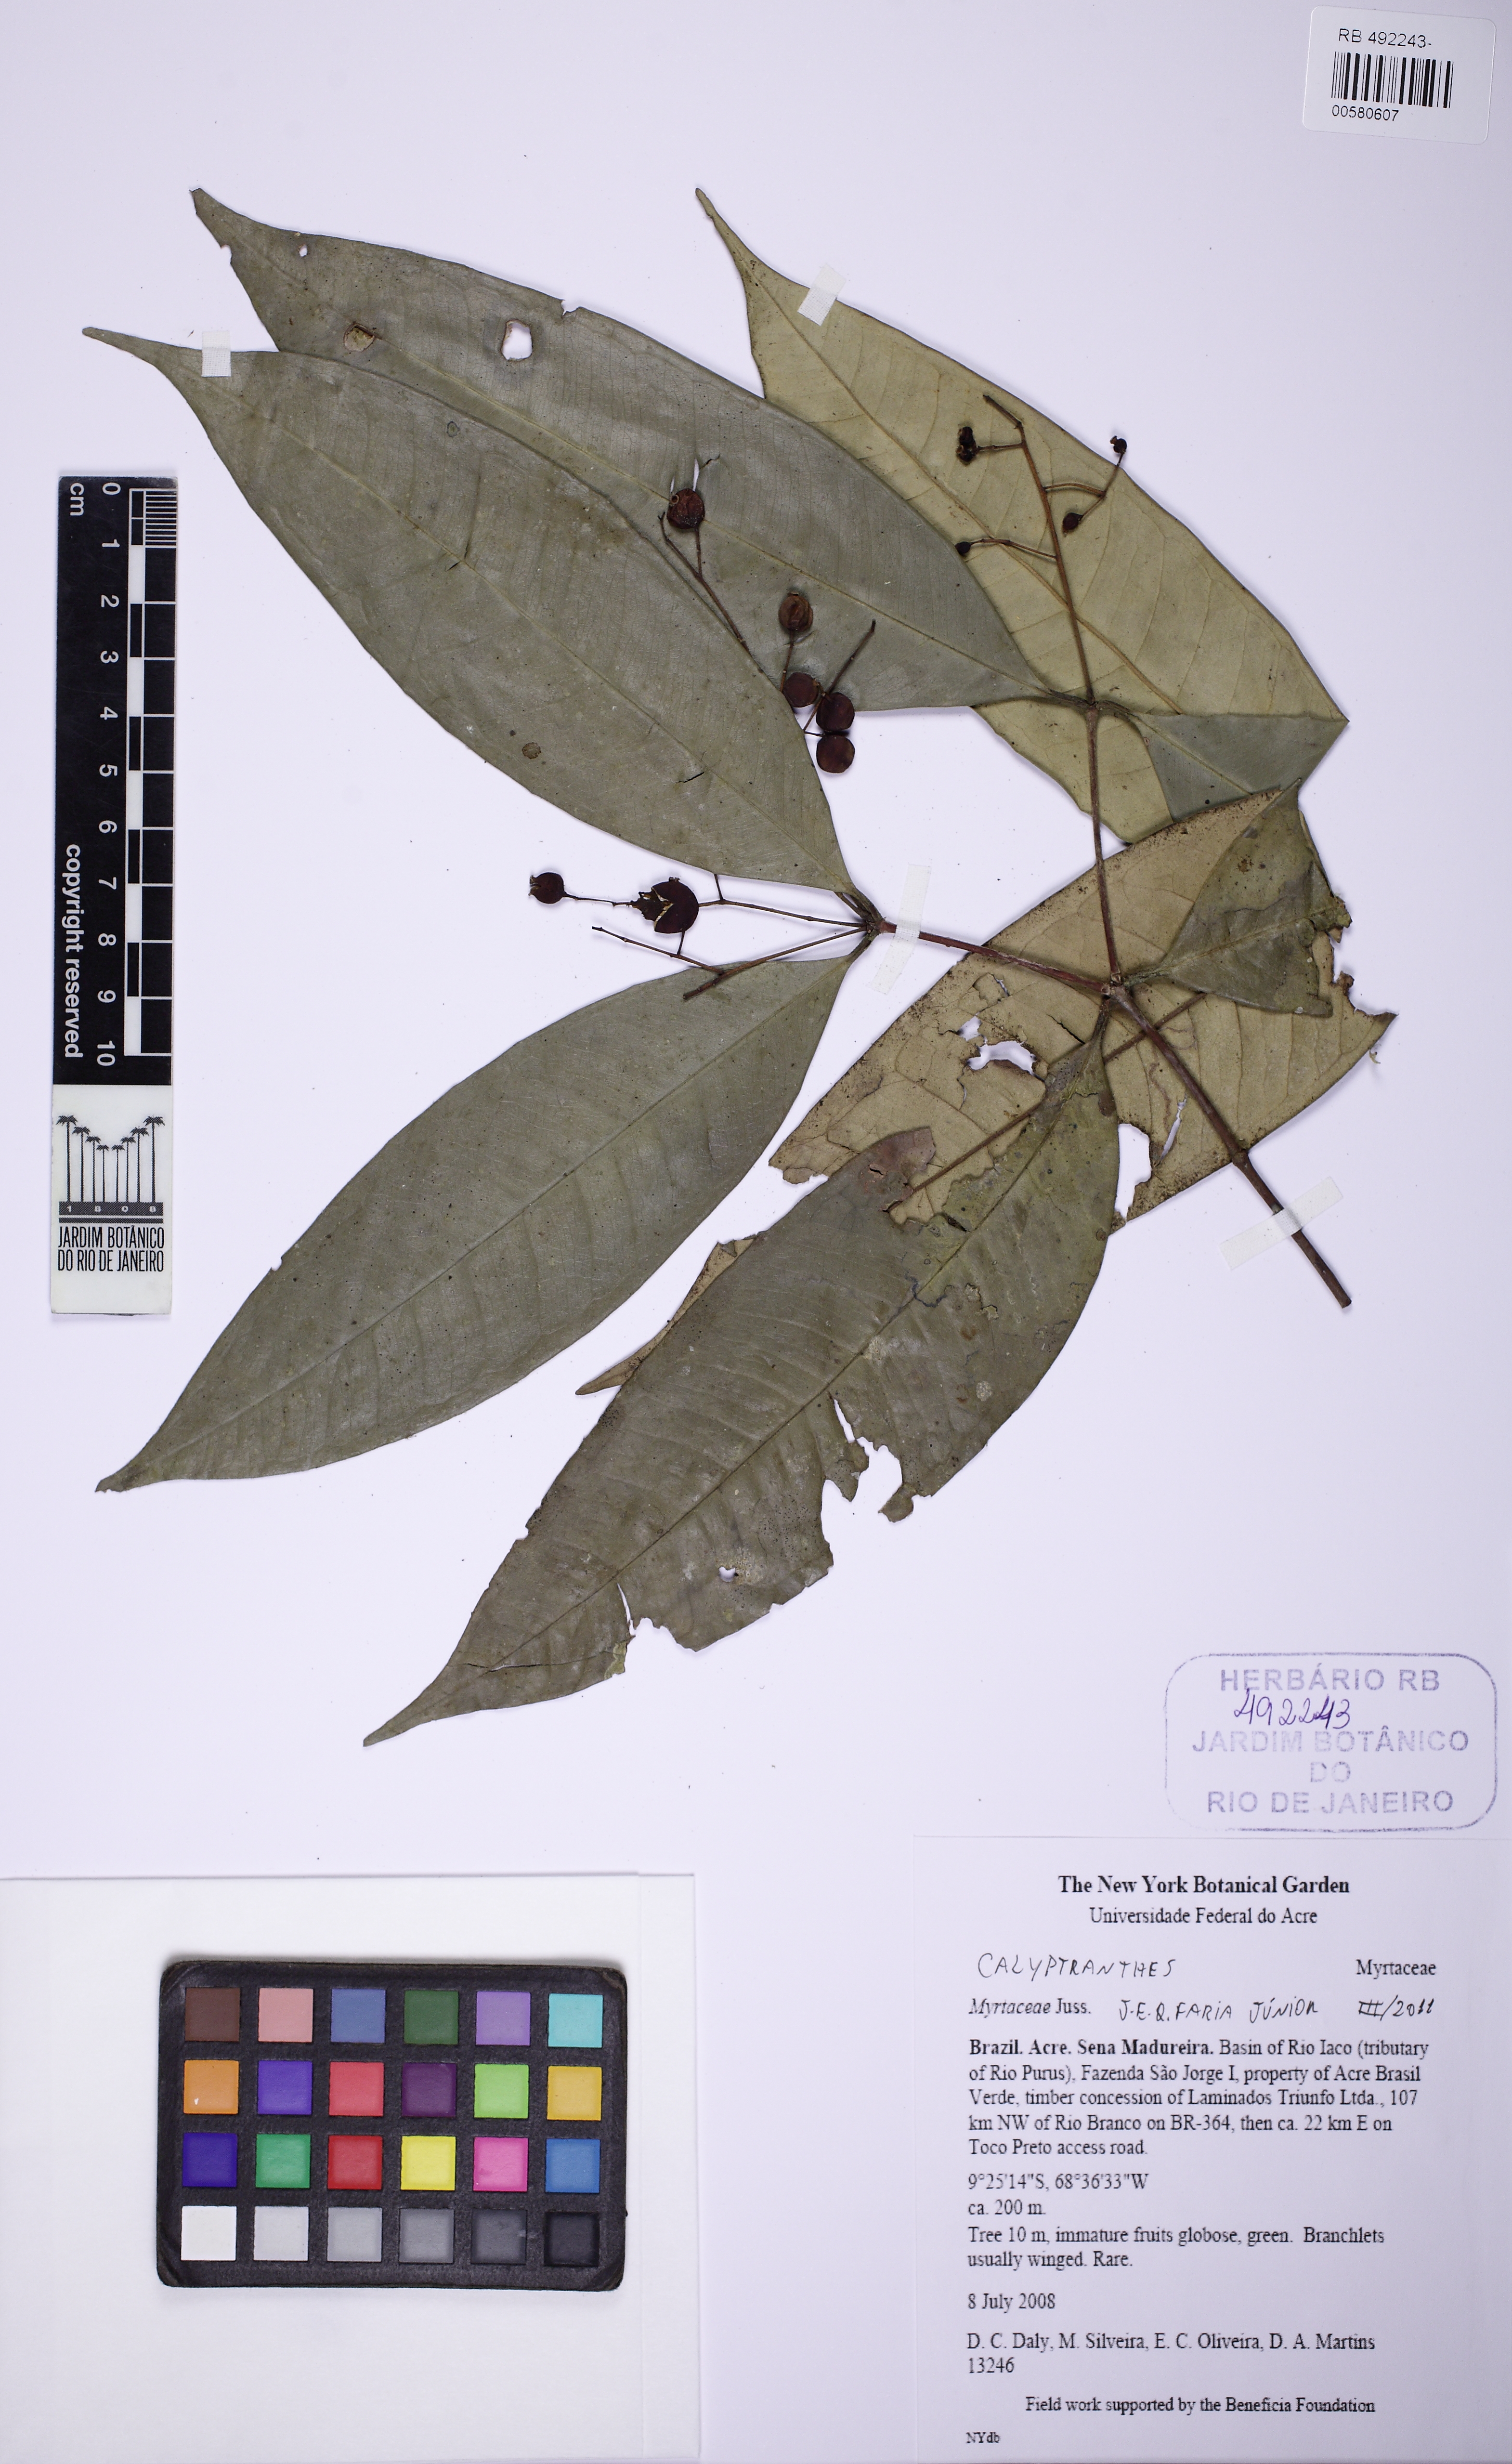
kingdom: Plantae
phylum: Tracheophyta
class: Magnoliopsida
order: Myrtales
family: Myrtaceae
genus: Calyptranthes
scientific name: Calyptranthes
